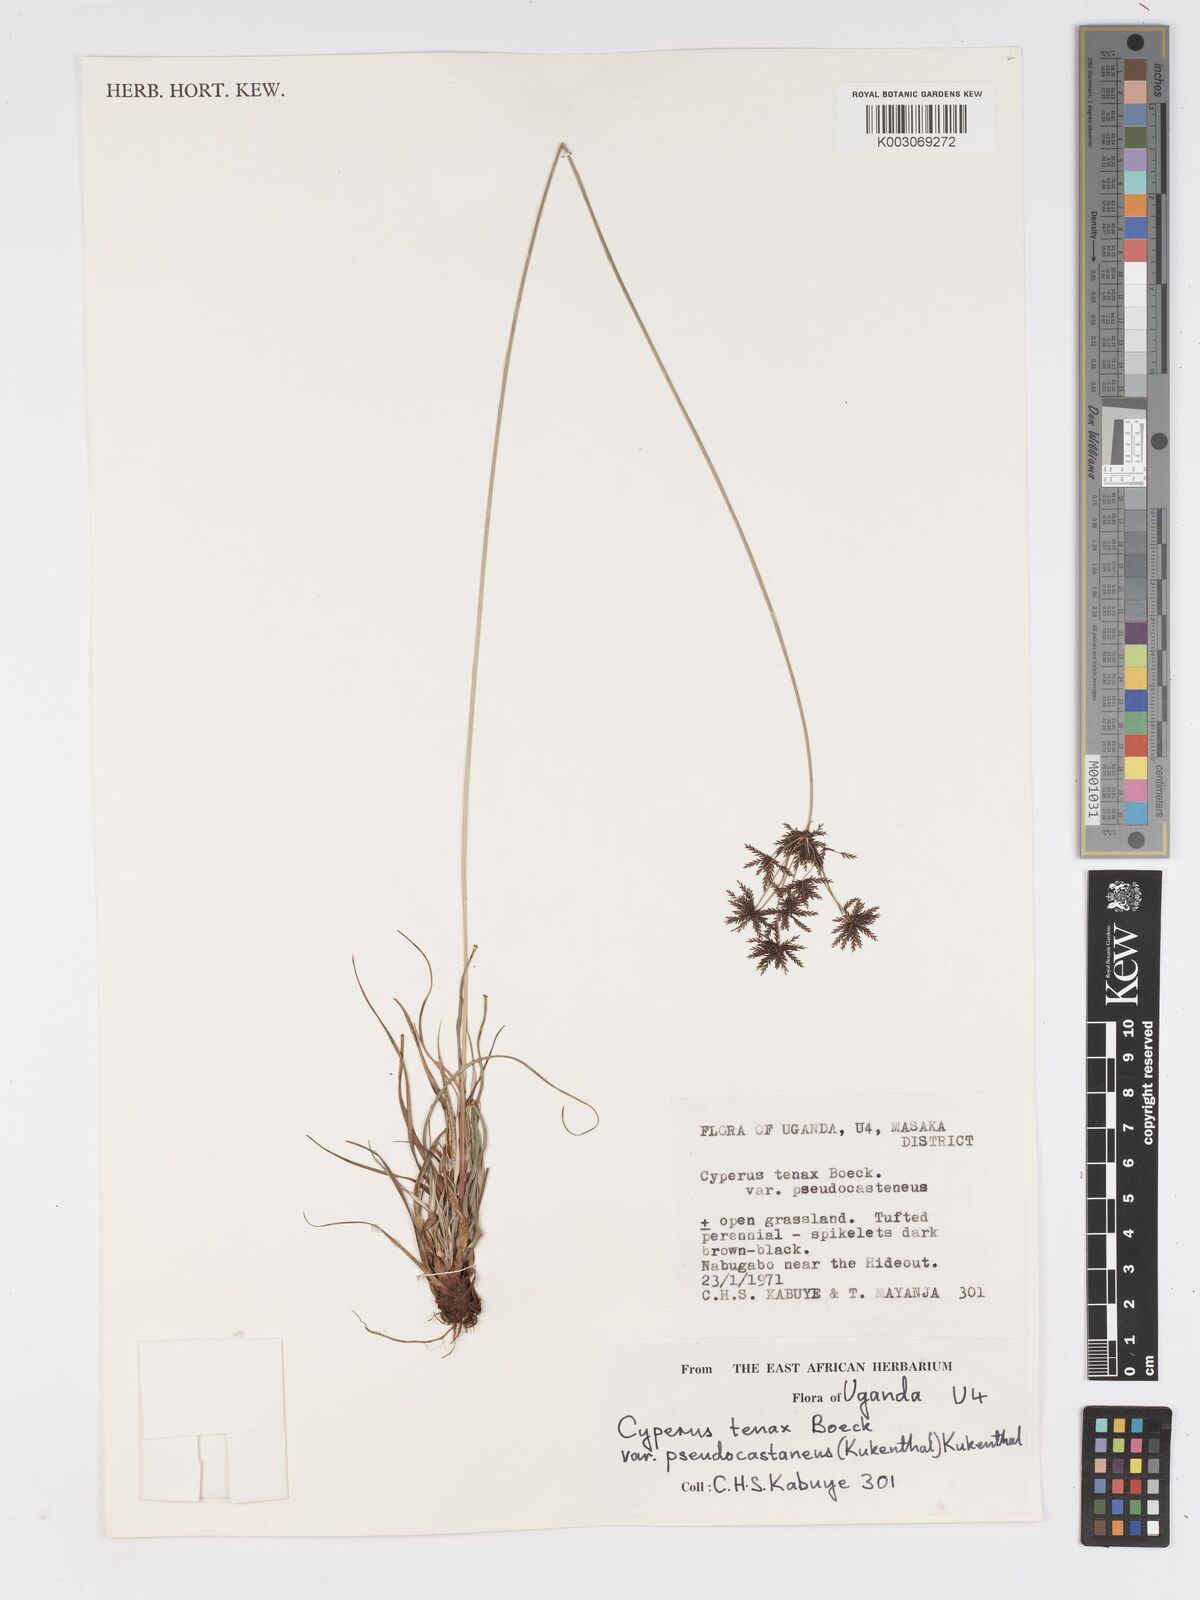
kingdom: Plantae
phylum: Tracheophyta
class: Liliopsida
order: Poales
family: Cyperaceae
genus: Cyperus
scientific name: Cyperus tenax
